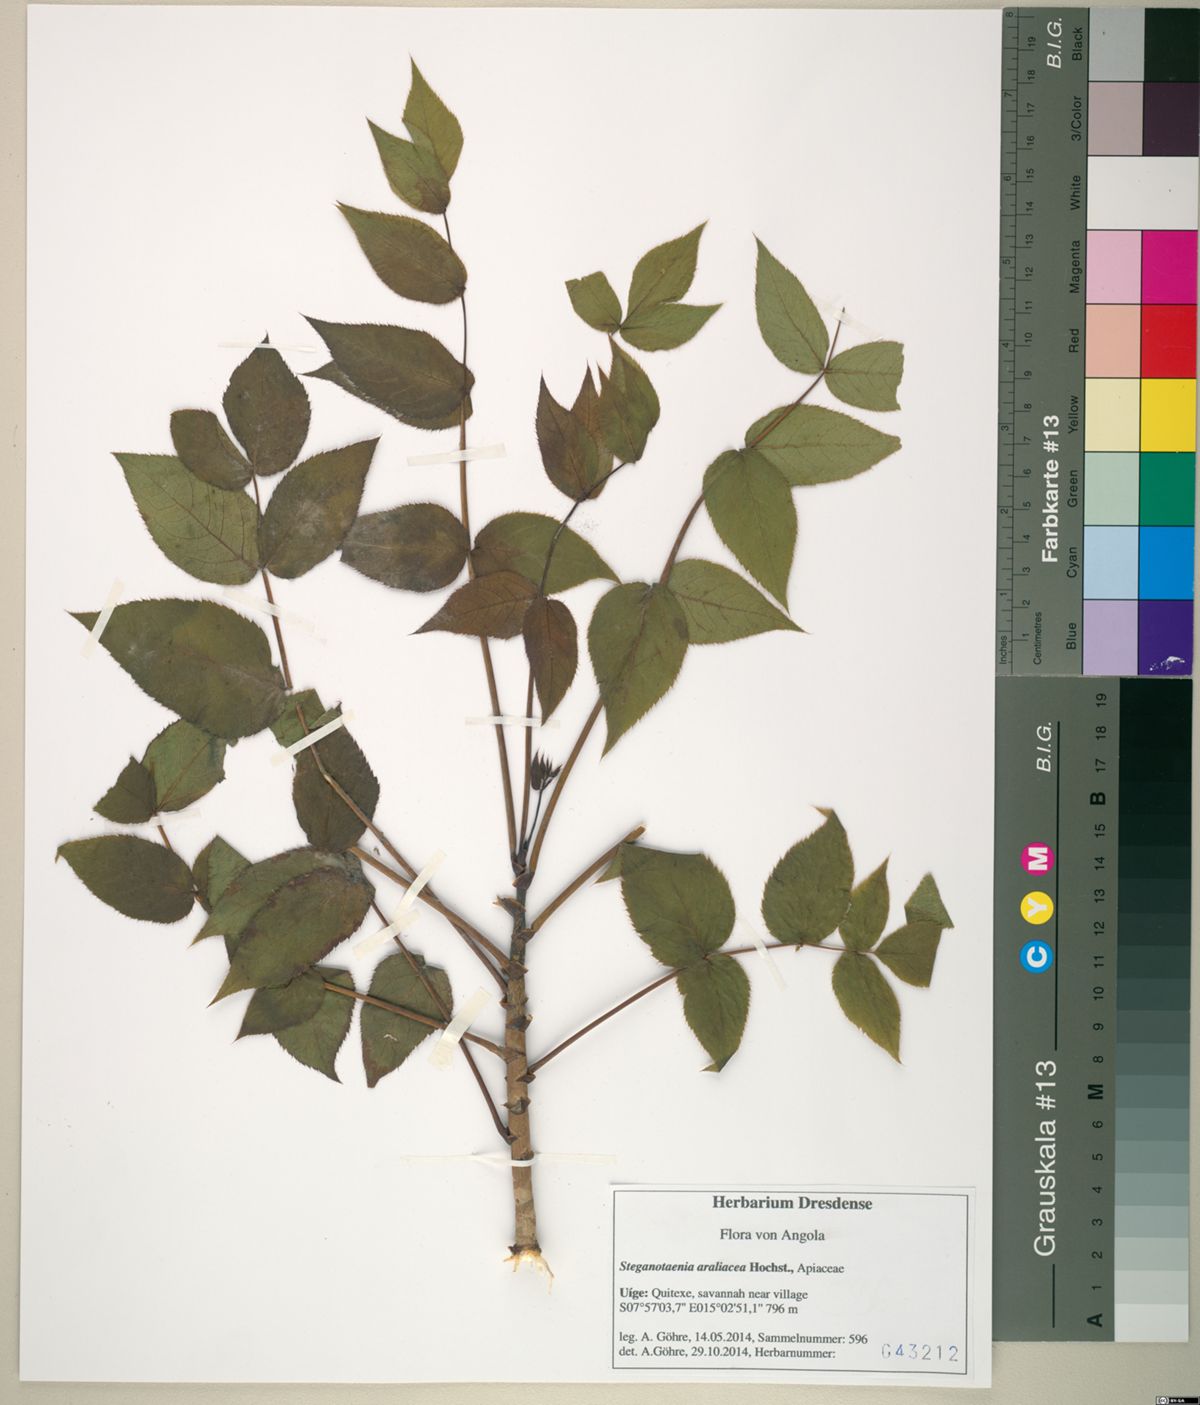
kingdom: Plantae
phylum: Tracheophyta
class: Magnoliopsida
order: Apiales
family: Apiaceae
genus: Steganotaenia
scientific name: Steganotaenia araliacea
